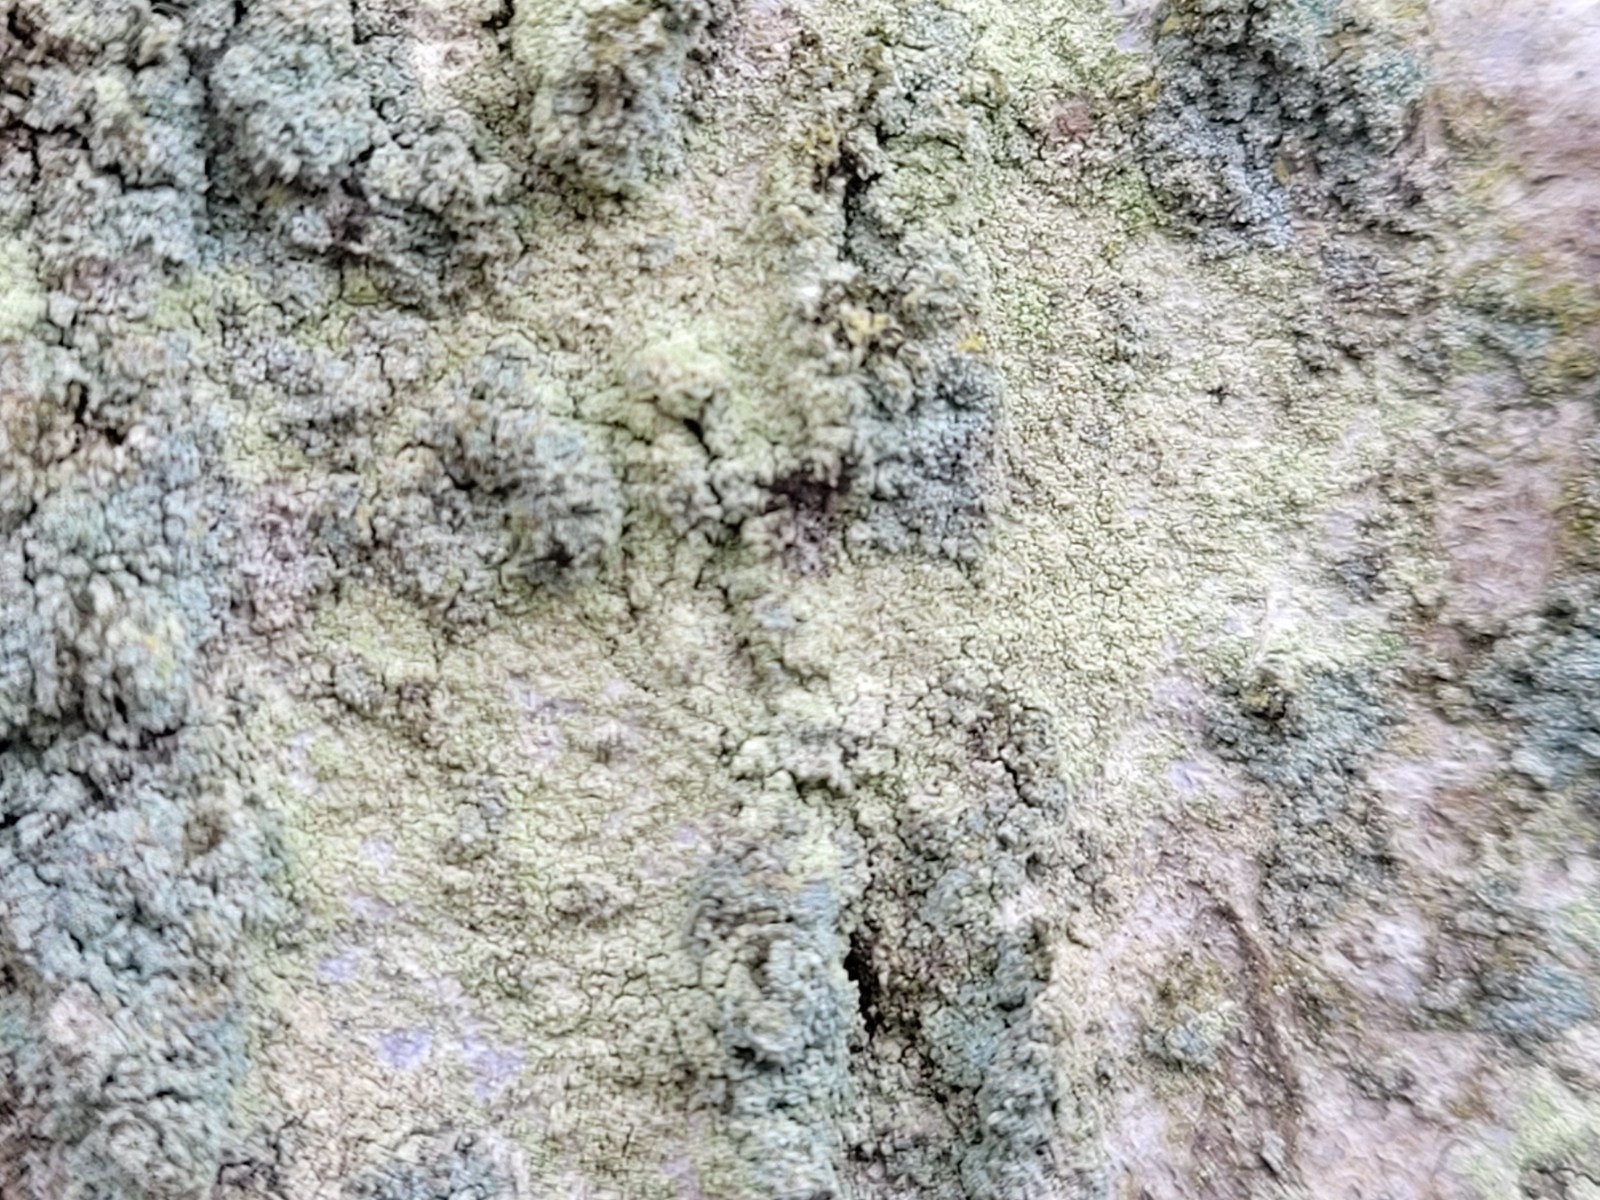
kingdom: Fungi
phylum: Ascomycota
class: Lecanoromycetes
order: Lecanorales
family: Lecanoraceae
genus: Lecanora
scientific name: Lecanora expallens
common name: bleggul kantskivelav
